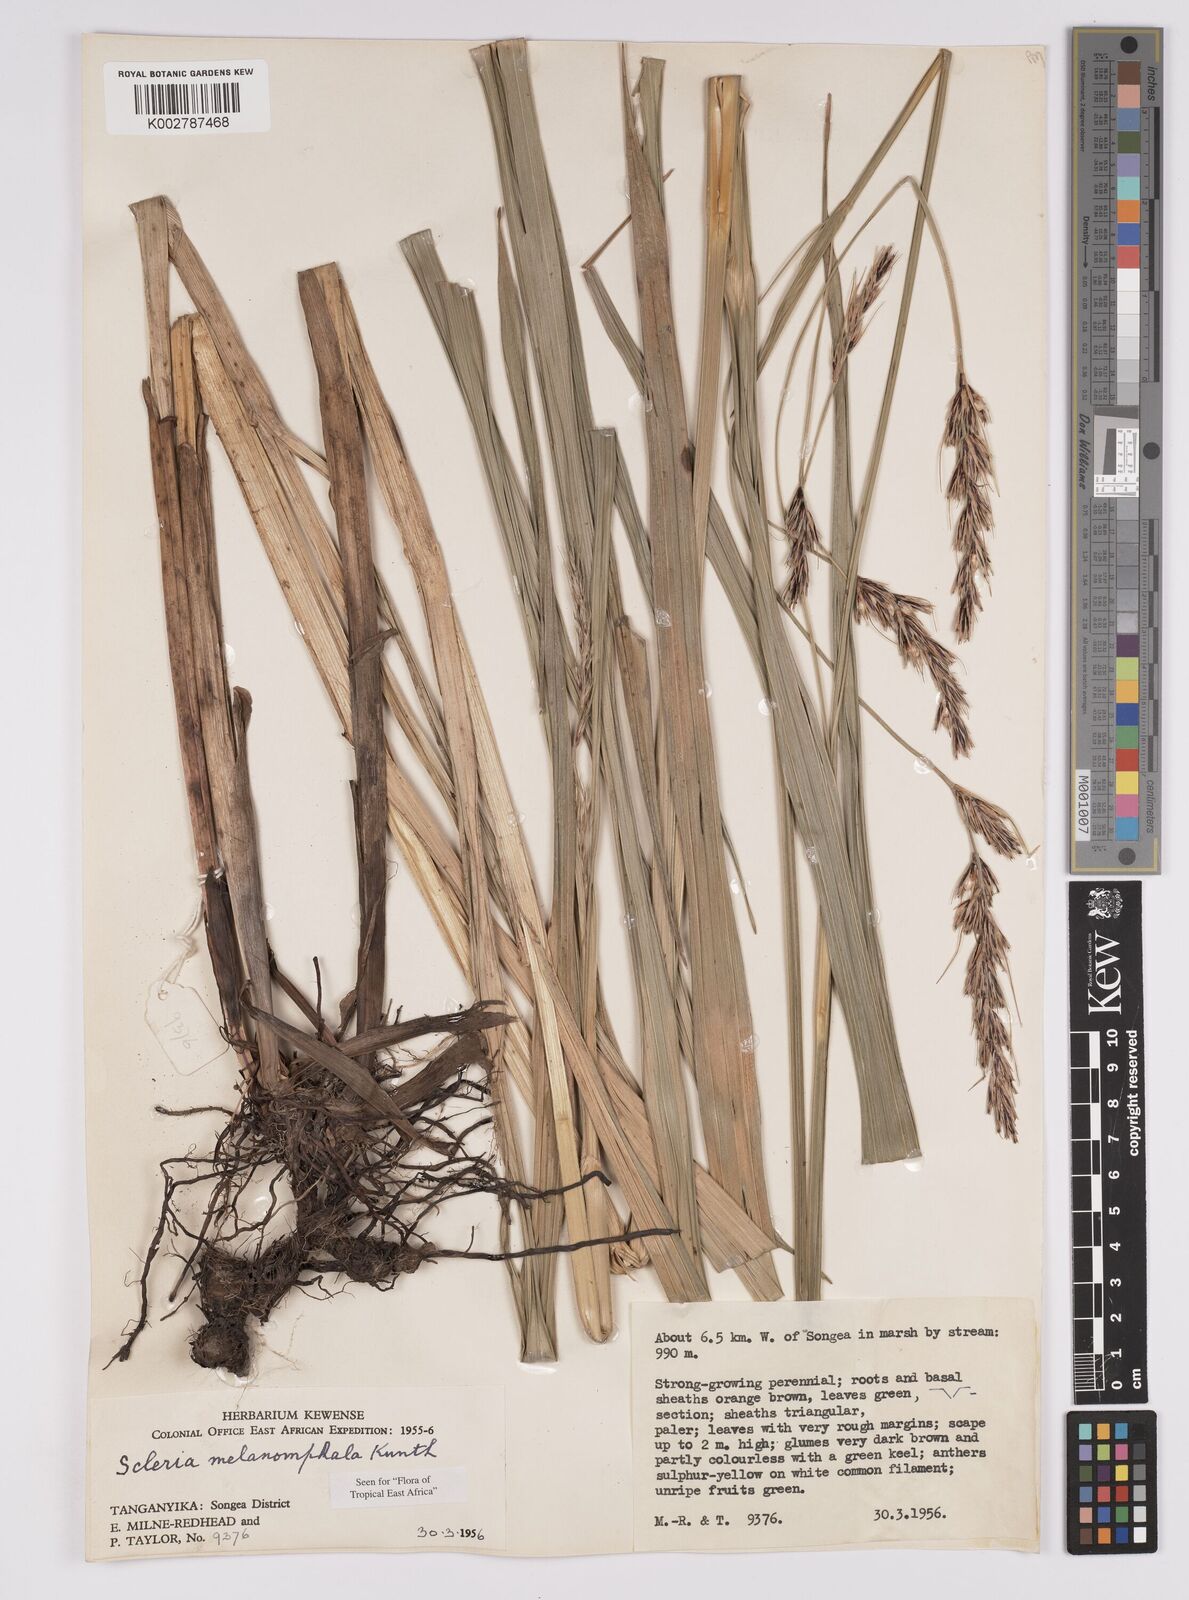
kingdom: Plantae
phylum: Tracheophyta
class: Liliopsida
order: Poales
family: Cyperaceae
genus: Scleria
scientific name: Scleria melanomphala
